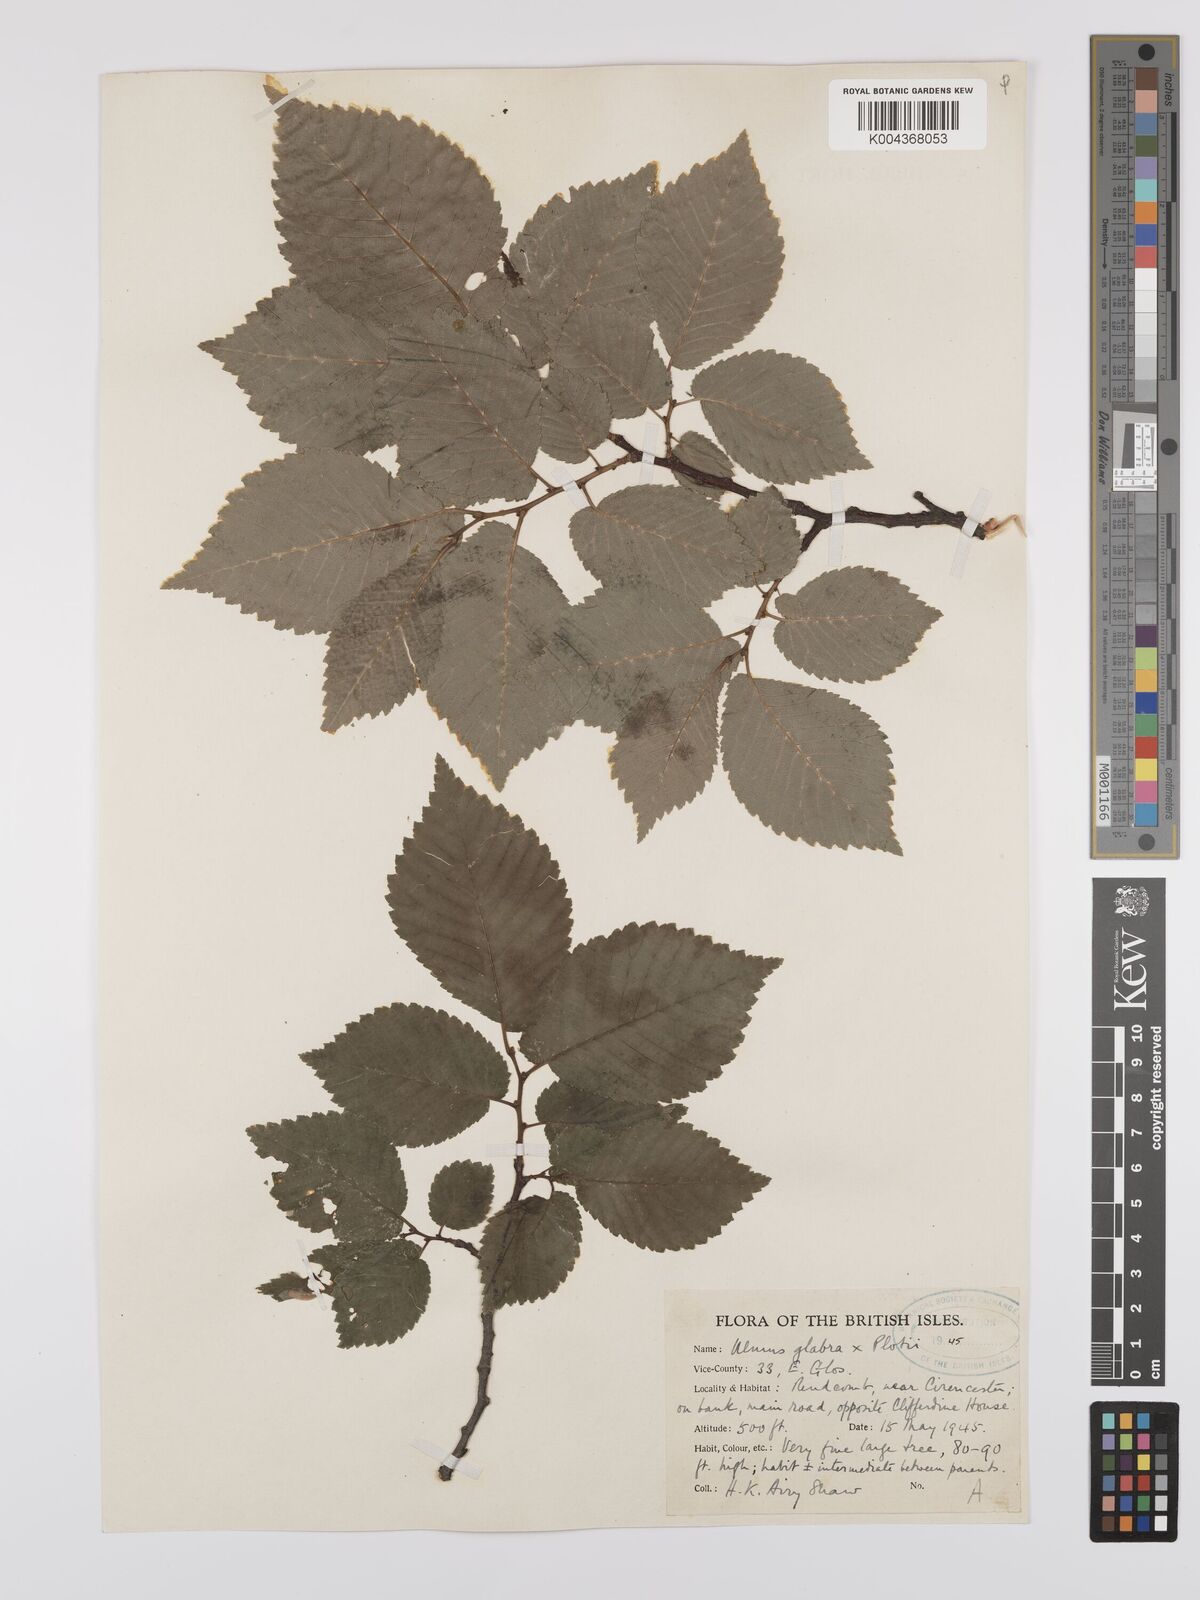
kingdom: Plantae
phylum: Tracheophyta
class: Magnoliopsida
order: Rosales
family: Ulmaceae
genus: Ulmus
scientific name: Ulmus
